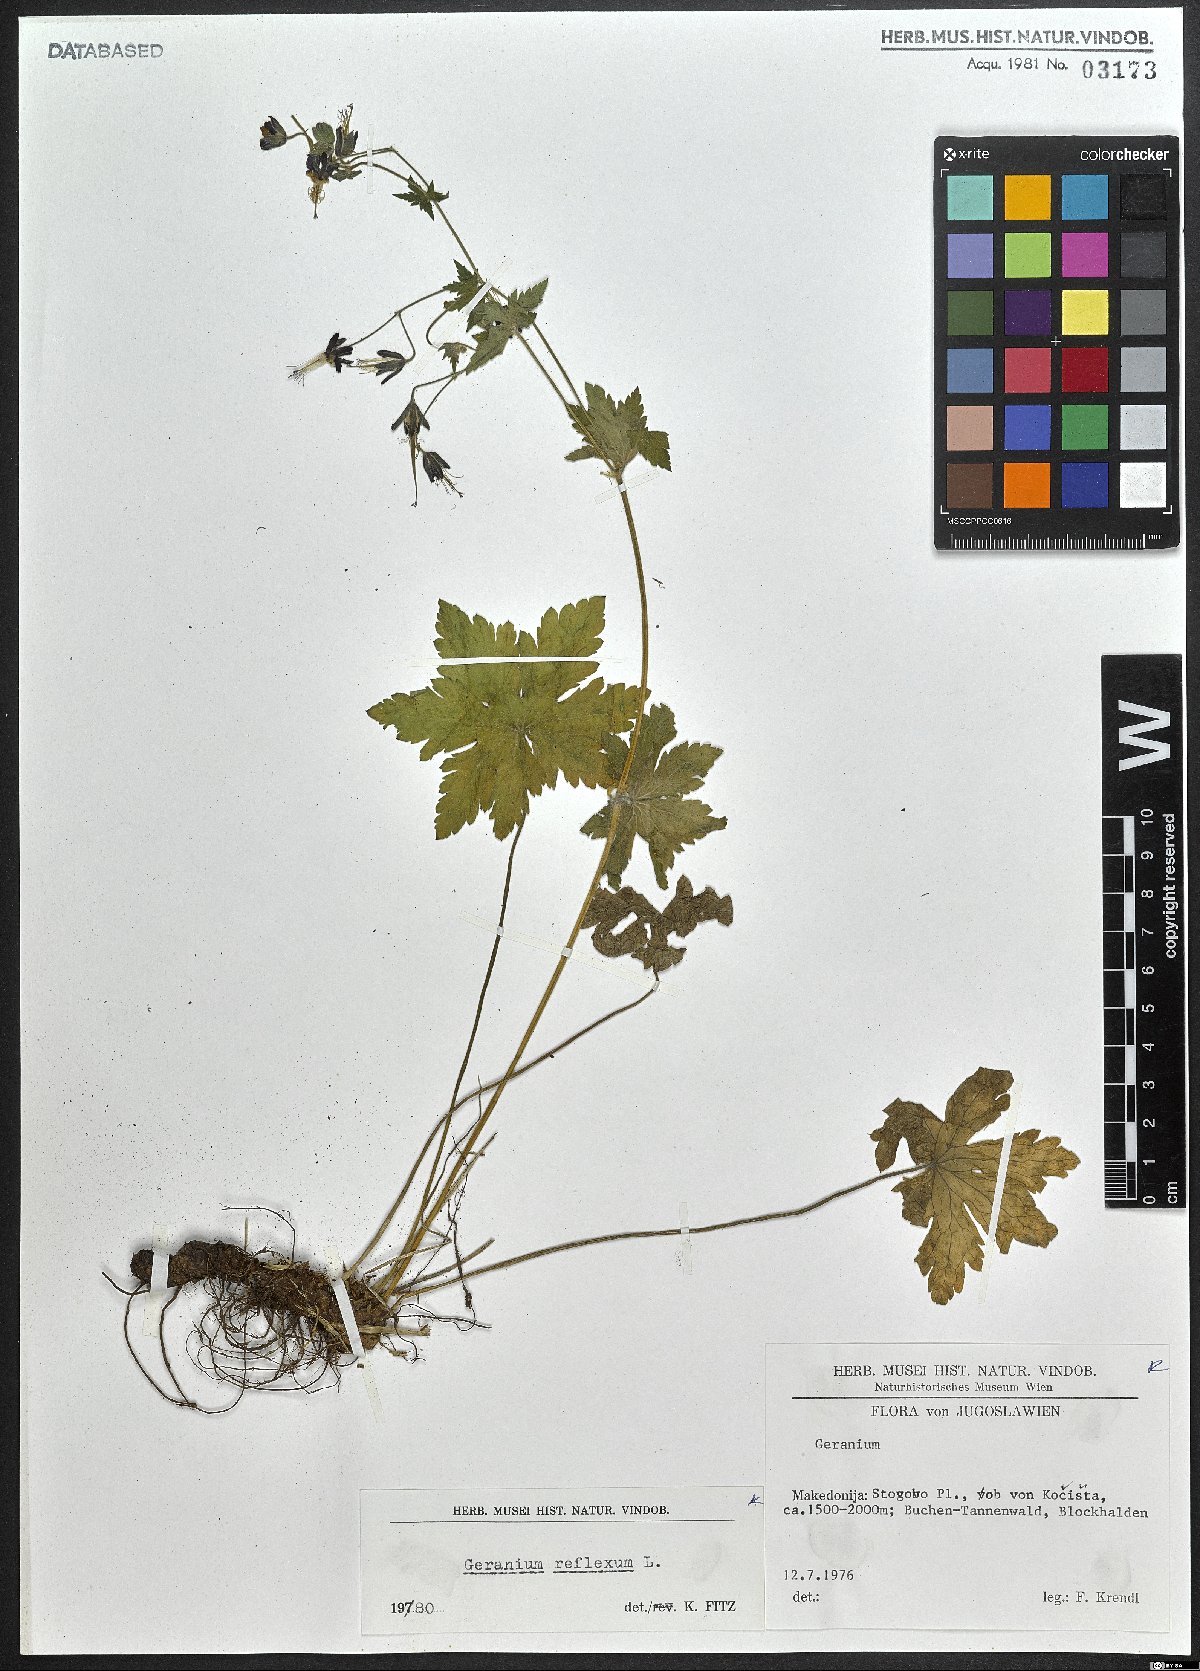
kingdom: Plantae
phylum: Tracheophyta
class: Magnoliopsida
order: Geraniales
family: Geraniaceae
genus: Geranium
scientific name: Geranium reflexum
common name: Reflexed crane's-bill
